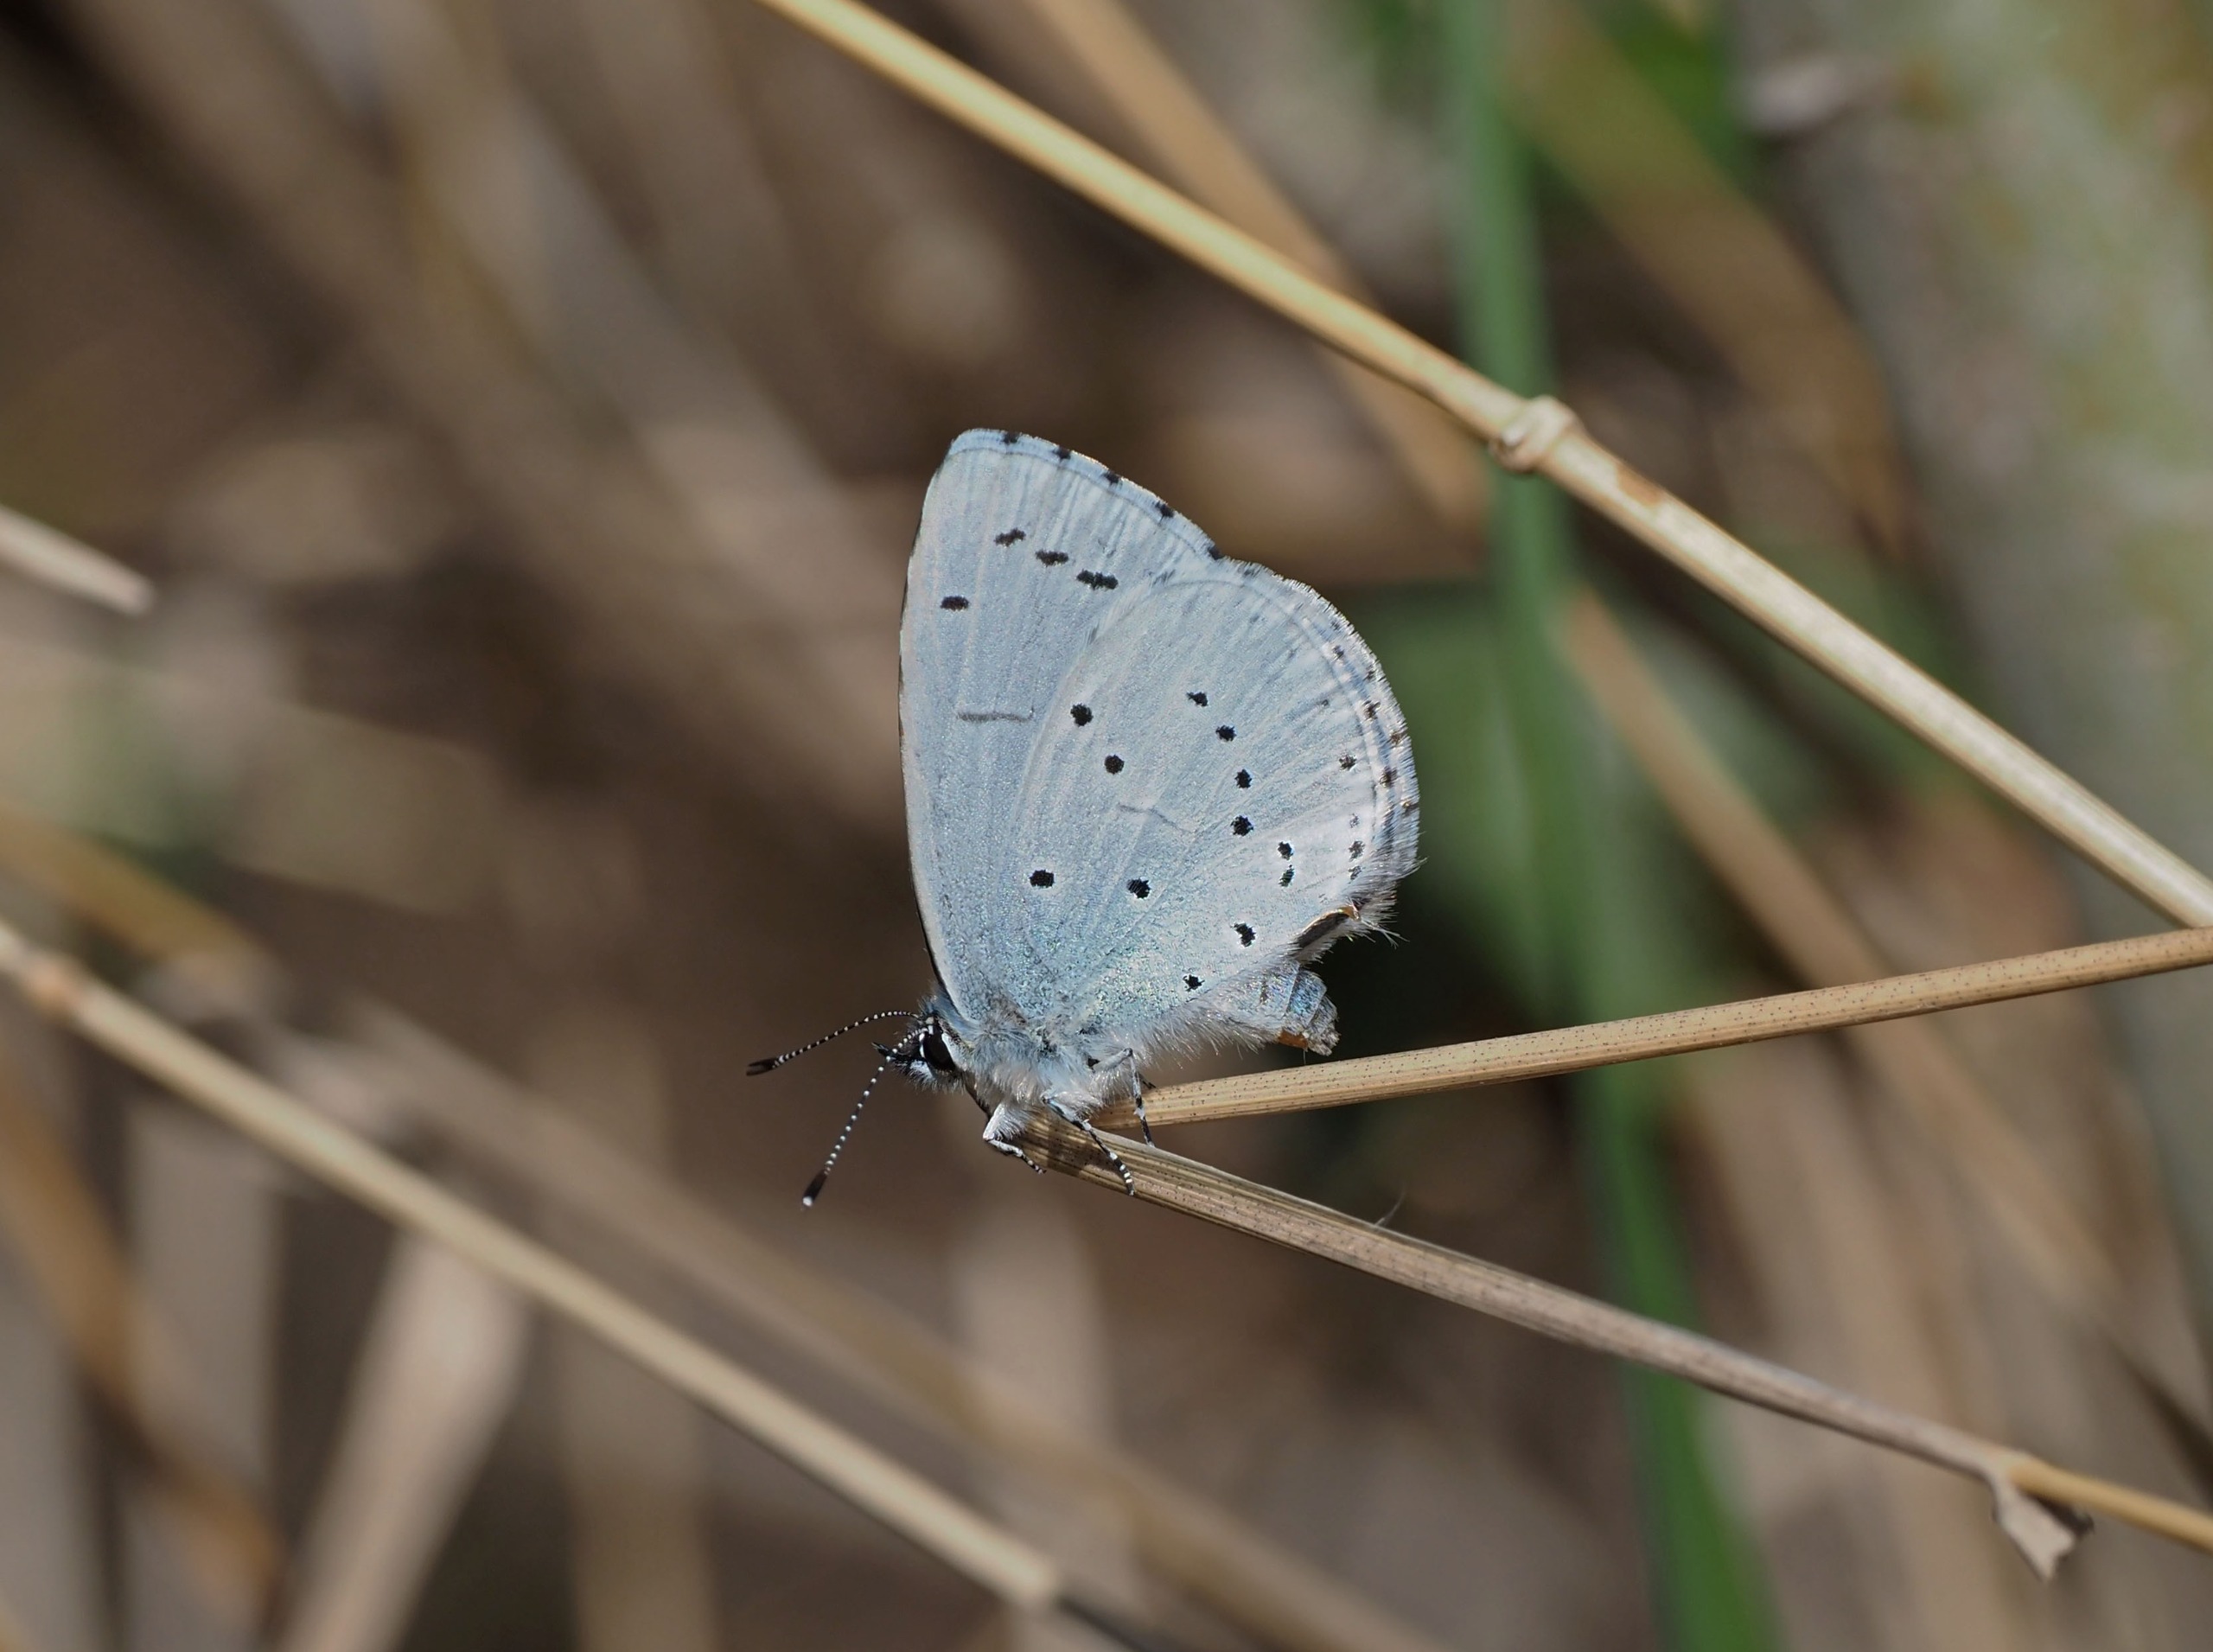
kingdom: Animalia
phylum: Arthropoda
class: Insecta
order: Lepidoptera
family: Lycaenidae
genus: Celastrina
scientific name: Celastrina argiolus
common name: Skovblåfugl
